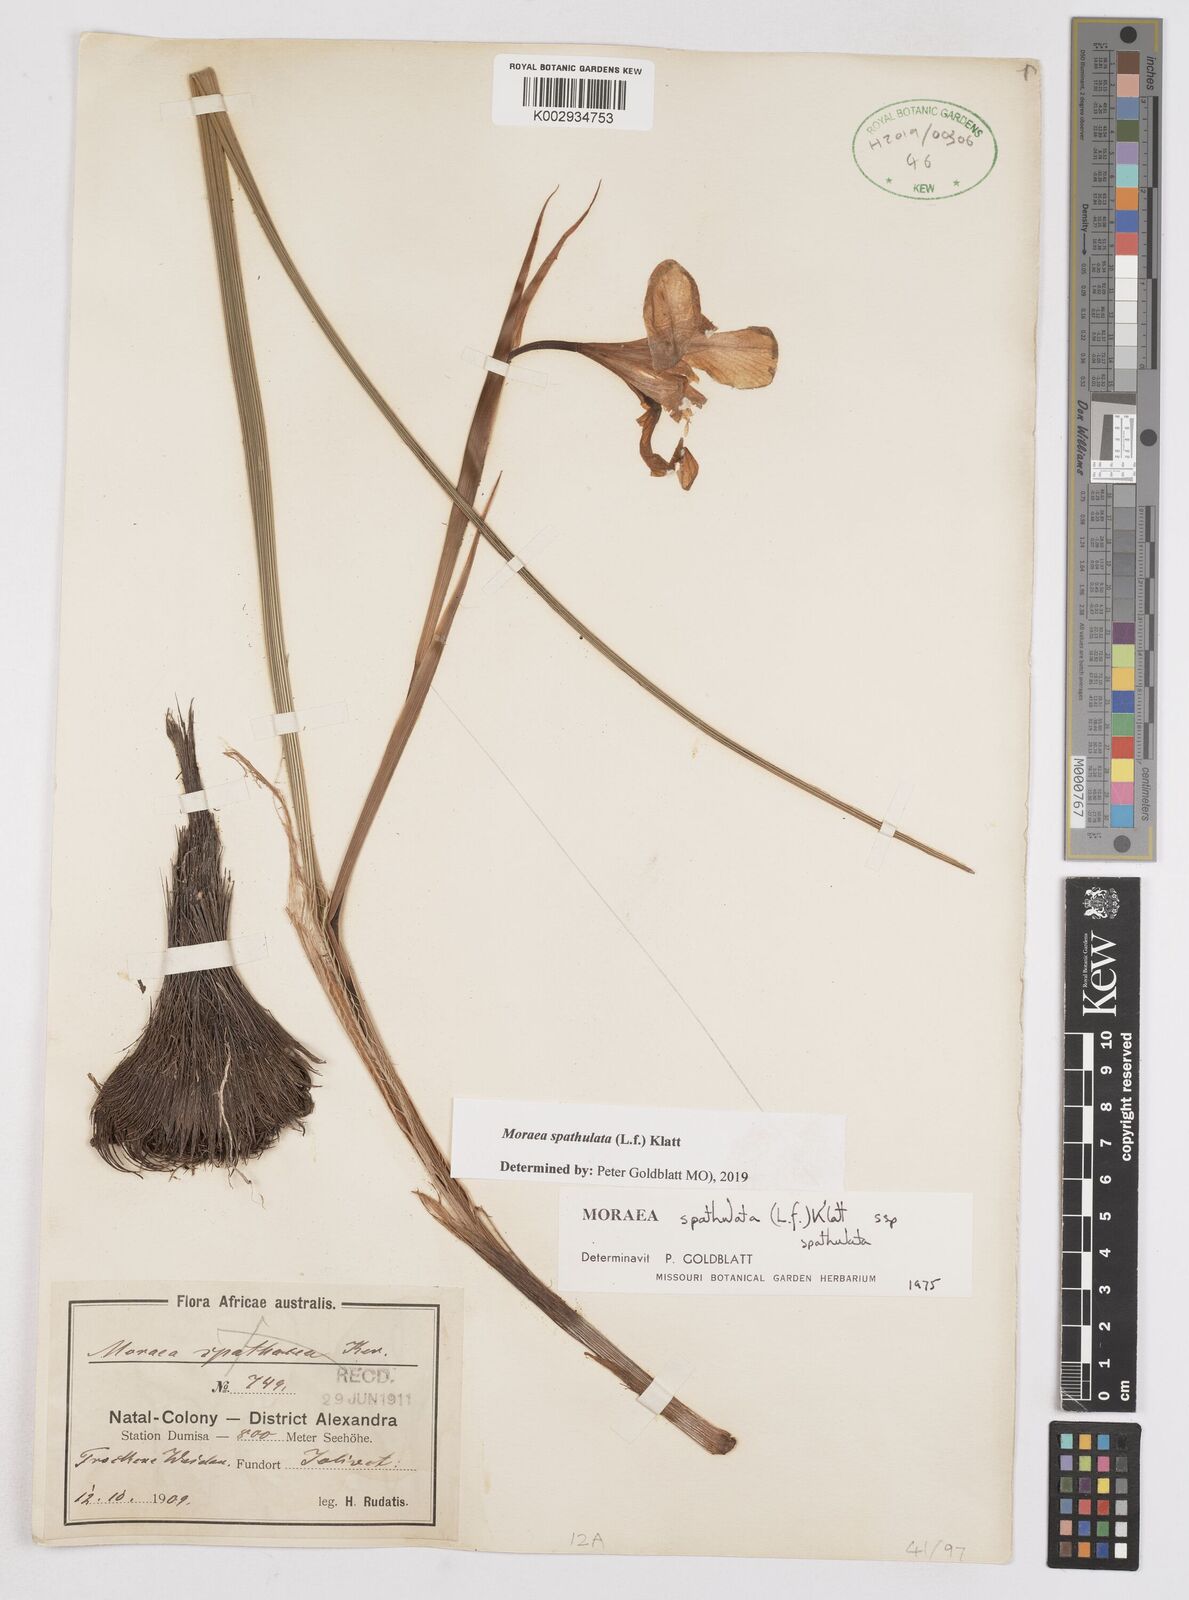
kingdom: Plantae
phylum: Tracheophyta
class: Liliopsida
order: Asparagales
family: Iridaceae
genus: Moraea
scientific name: Moraea spathulata
